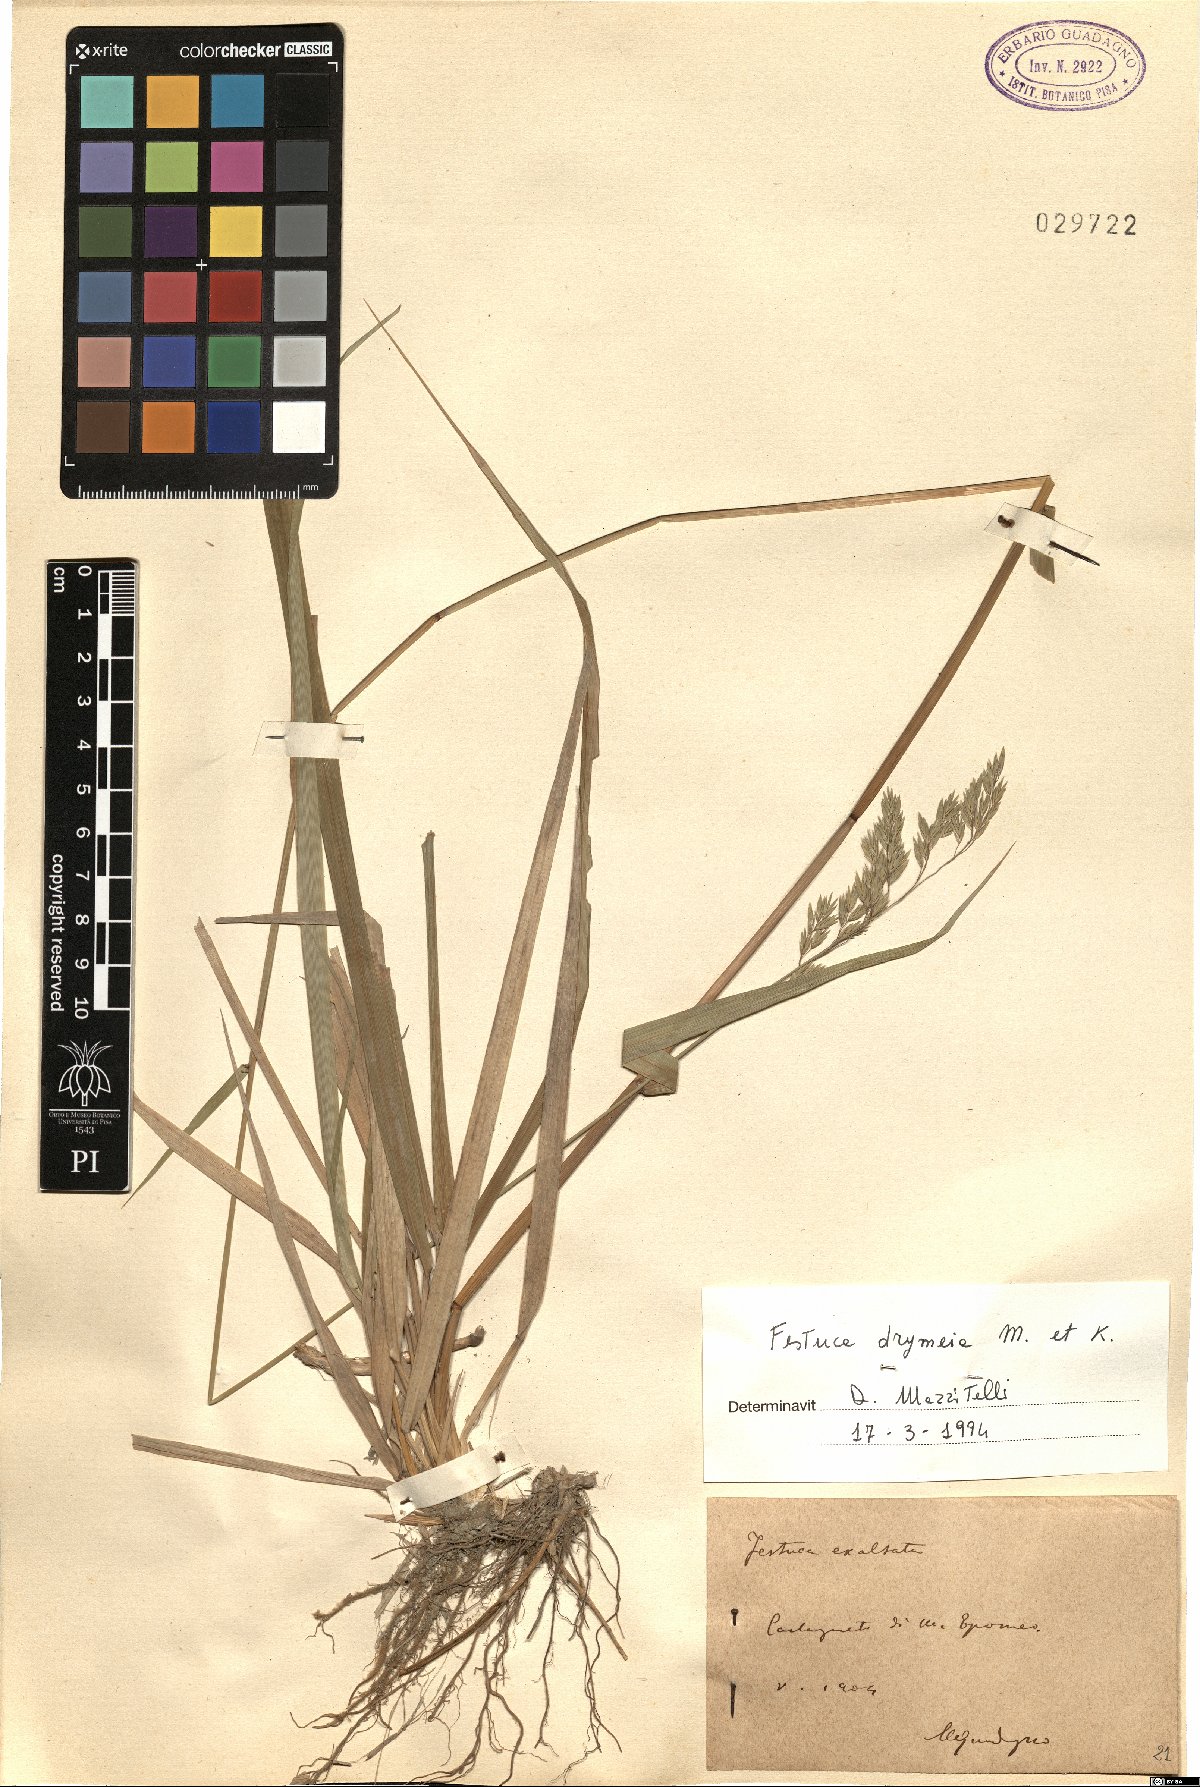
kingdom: Plantae
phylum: Tracheophyta
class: Liliopsida
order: Poales
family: Poaceae
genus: Festuca
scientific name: Festuca drymeja
